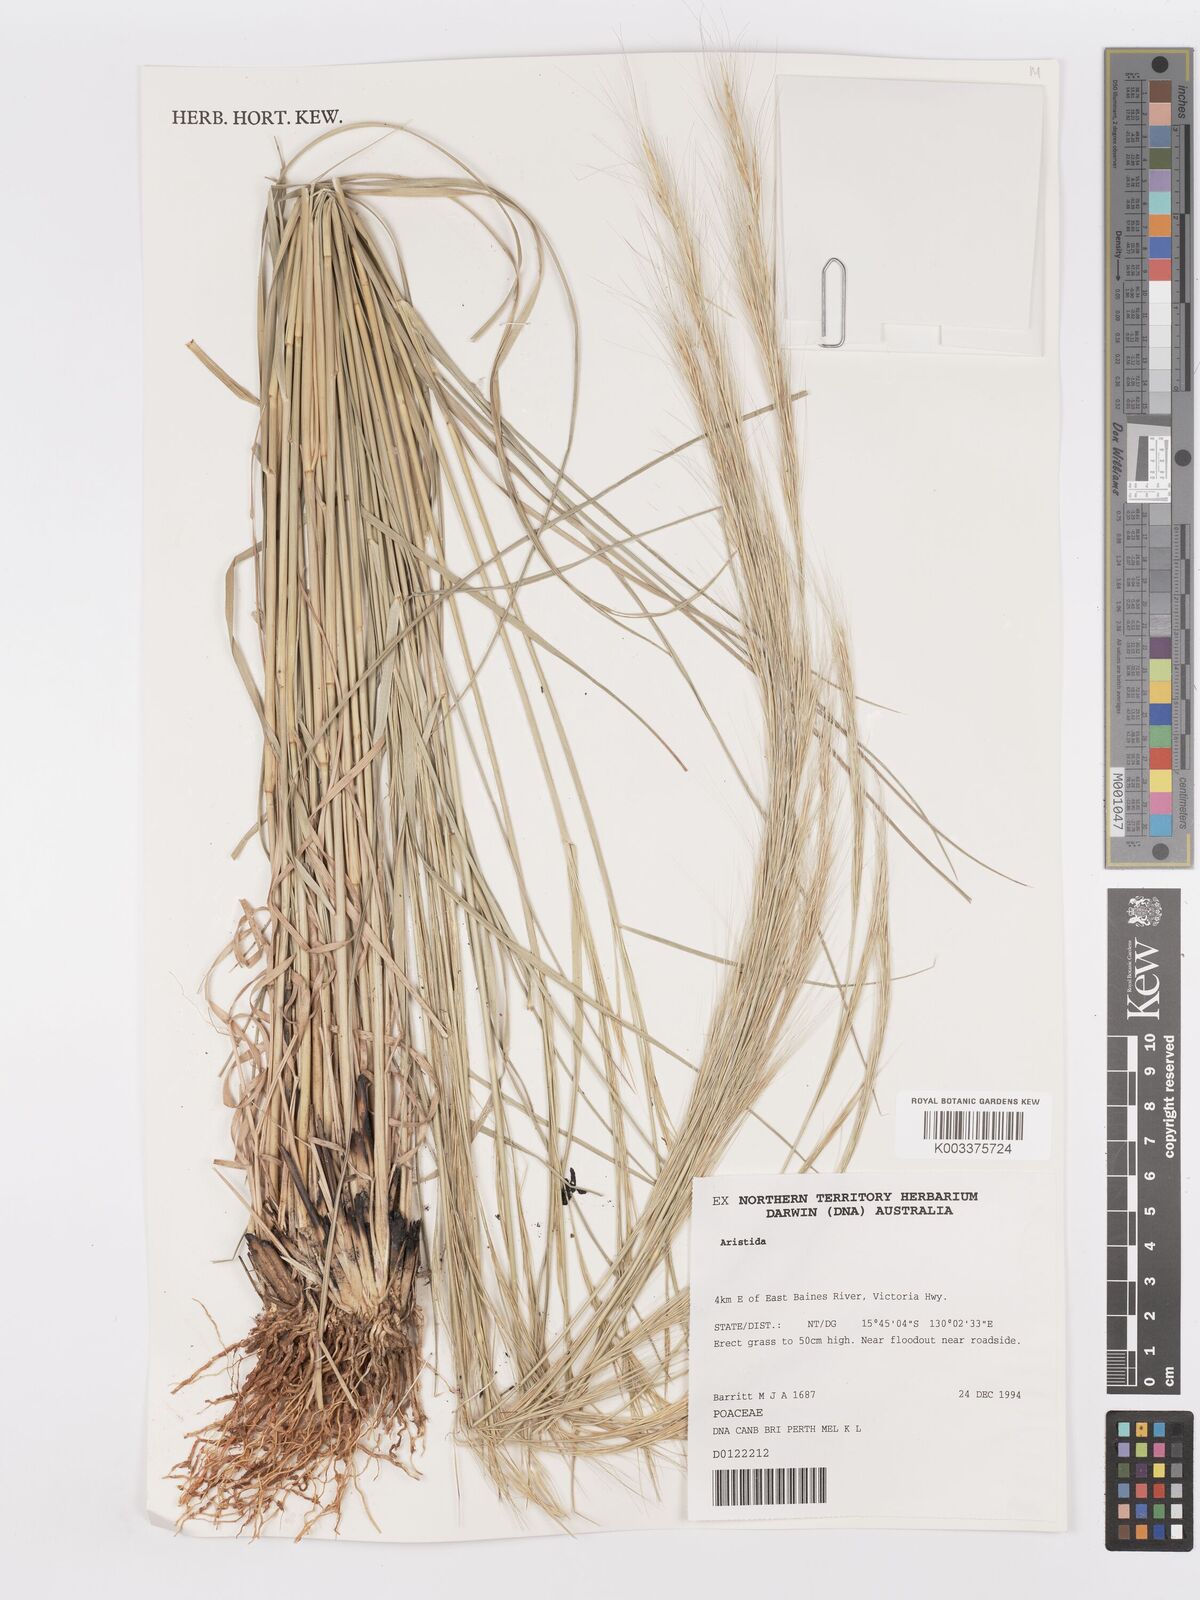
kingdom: Plantae
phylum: Tracheophyta
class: Liliopsida
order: Poales
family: Poaceae
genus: Aristida
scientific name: Aristida
